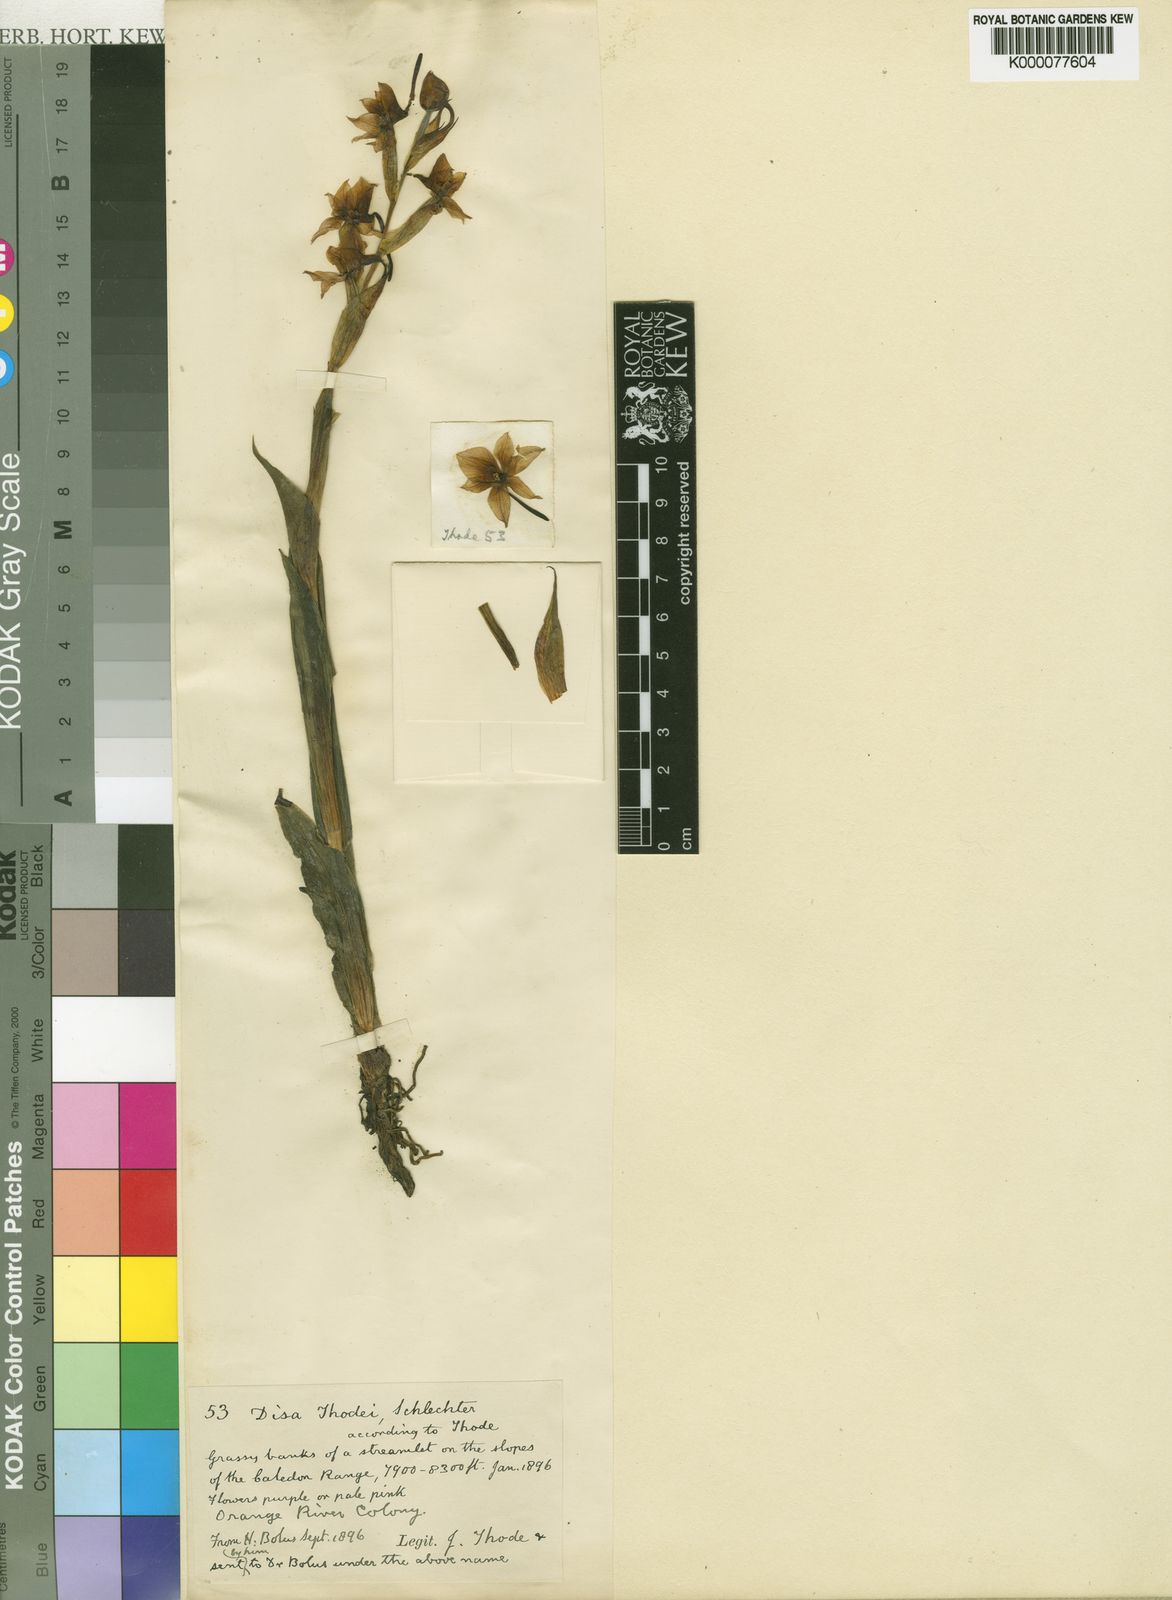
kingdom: Plantae
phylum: Tracheophyta
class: Liliopsida
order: Asparagales
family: Orchidaceae
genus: Disa
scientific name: Disa thodei
